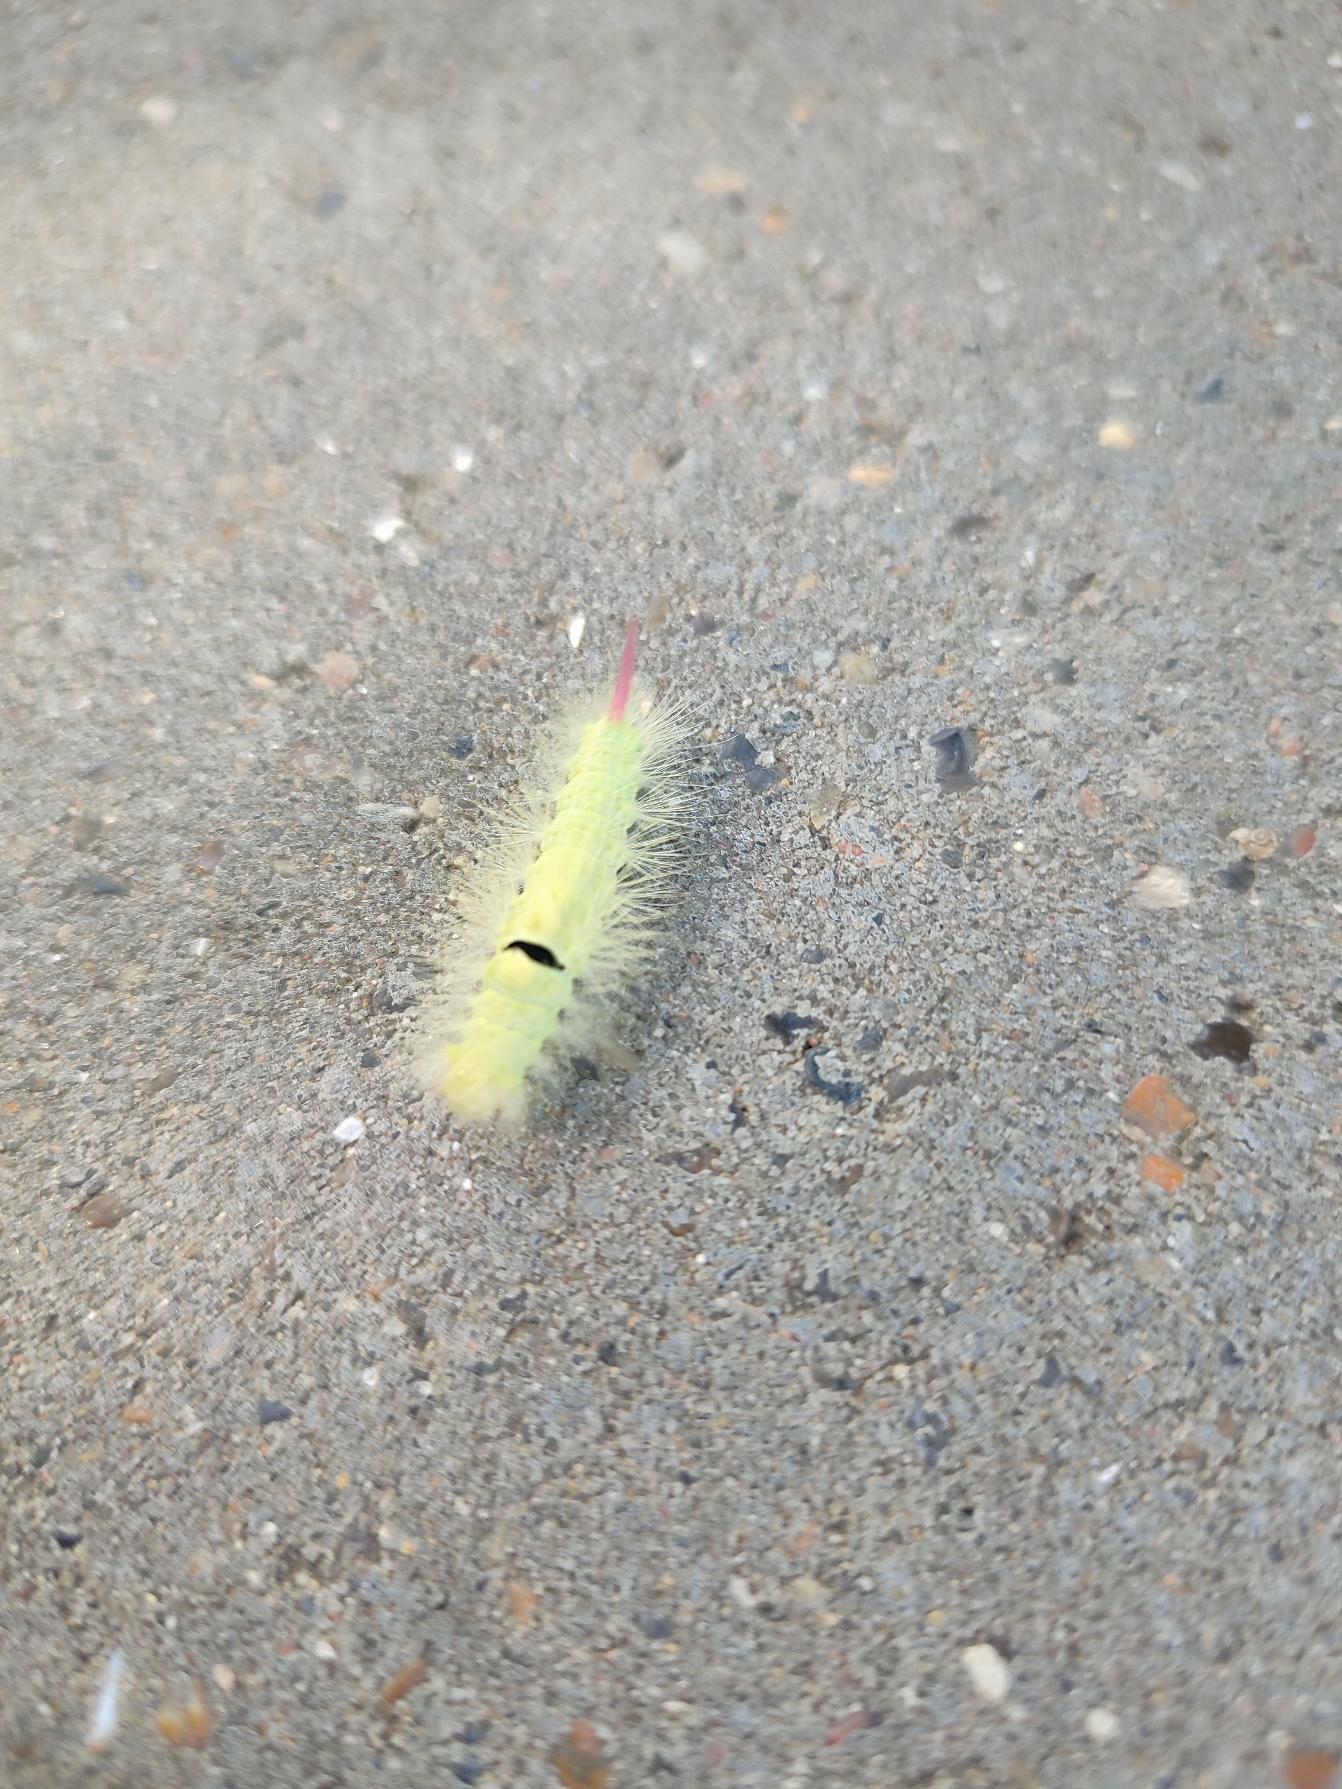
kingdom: Animalia
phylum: Arthropoda
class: Insecta
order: Lepidoptera
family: Erebidae
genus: Calliteara
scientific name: Calliteara pudibunda
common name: Bøgenonne
